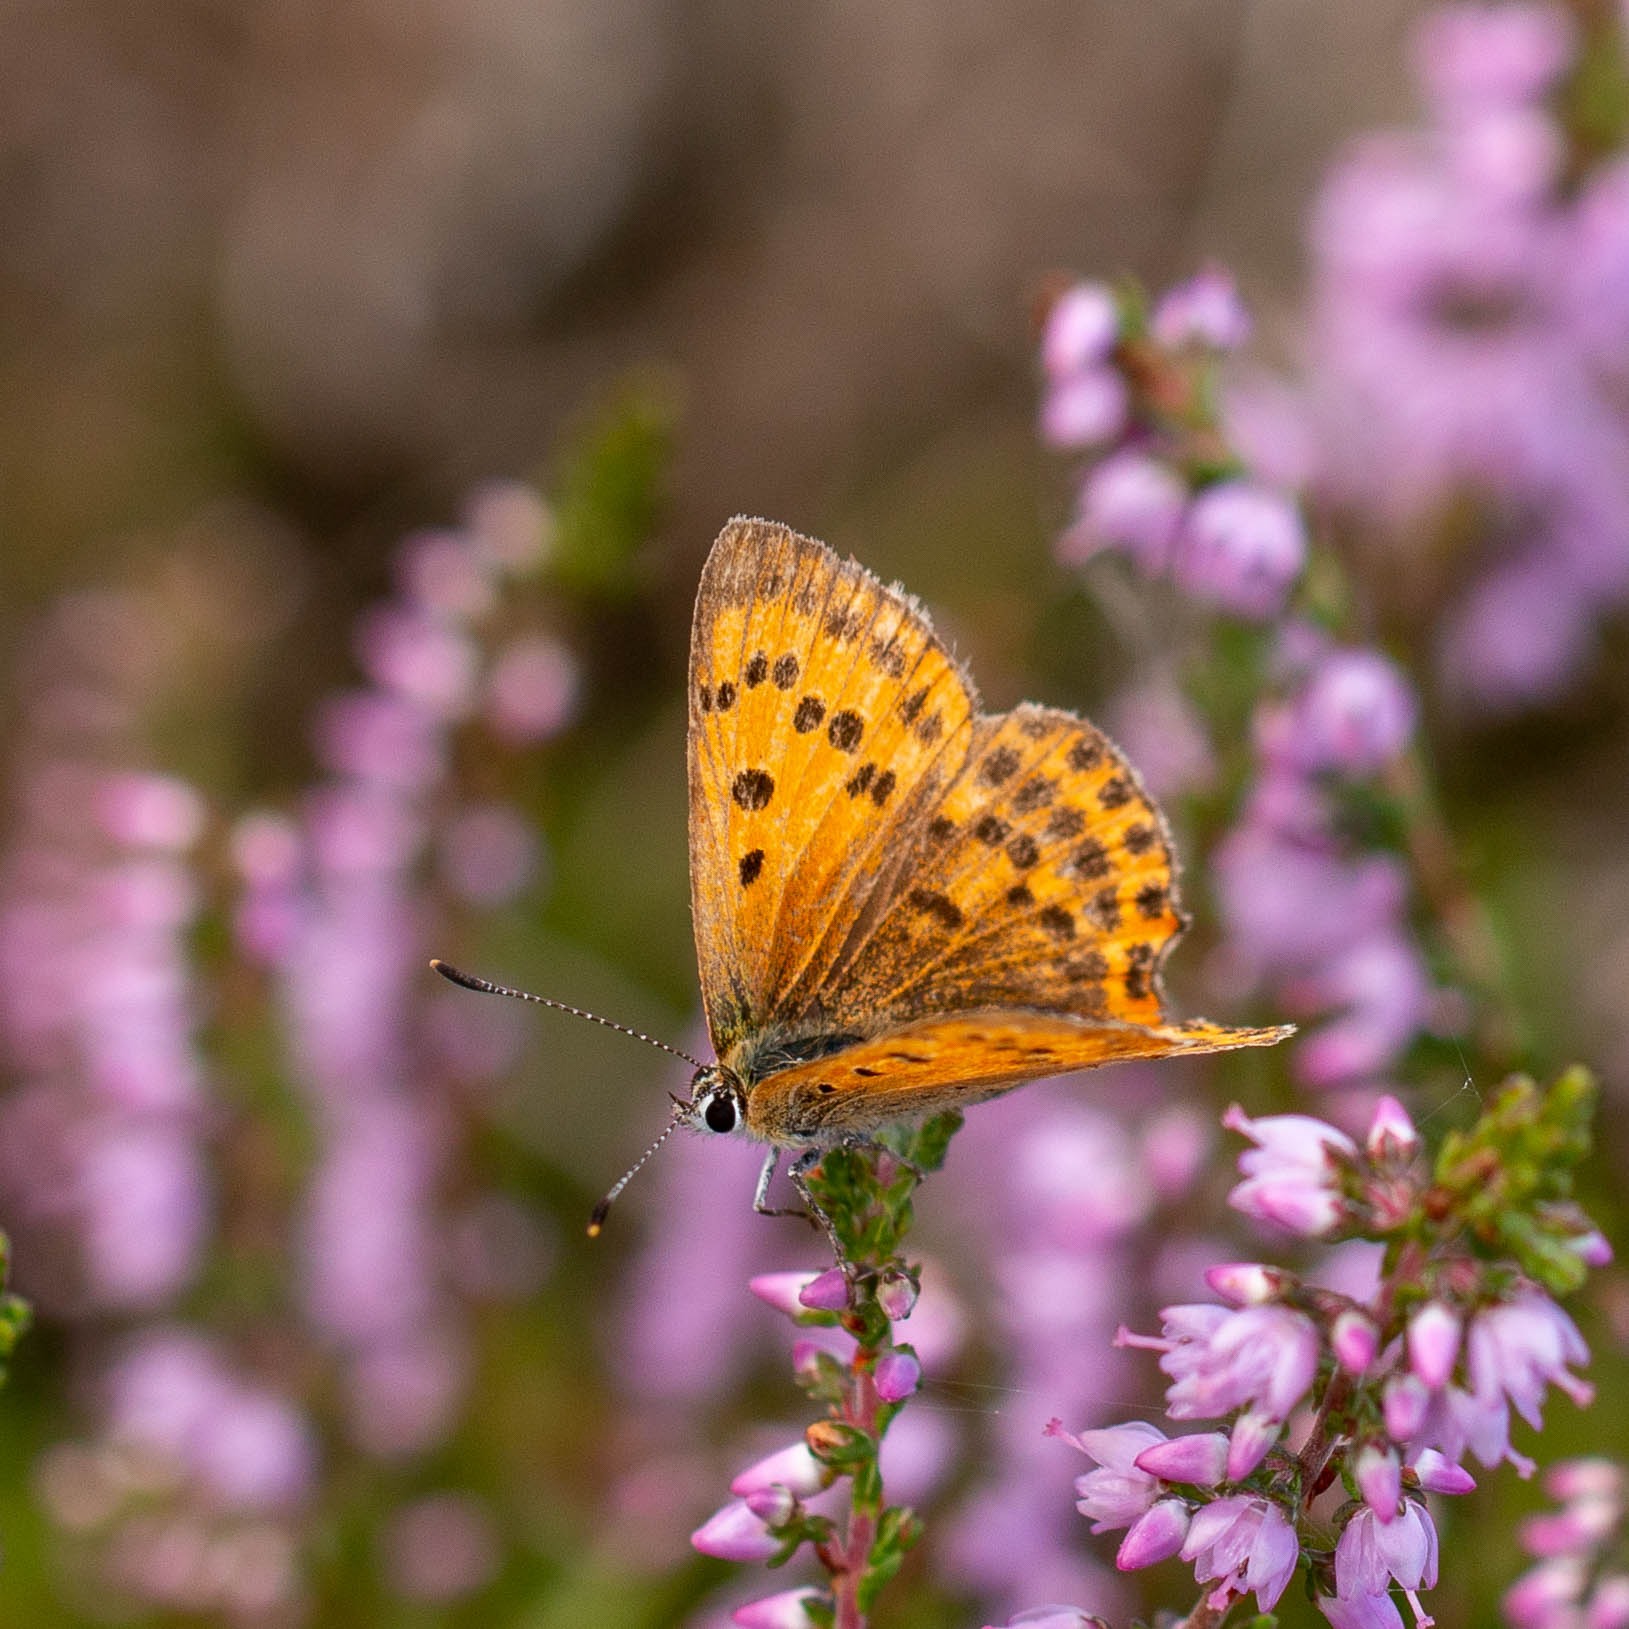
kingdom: Animalia
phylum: Arthropoda
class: Insecta
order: Lepidoptera
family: Lycaenidae
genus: Lycaena
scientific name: Lycaena virgaureae
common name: Dukatsommerfugl
